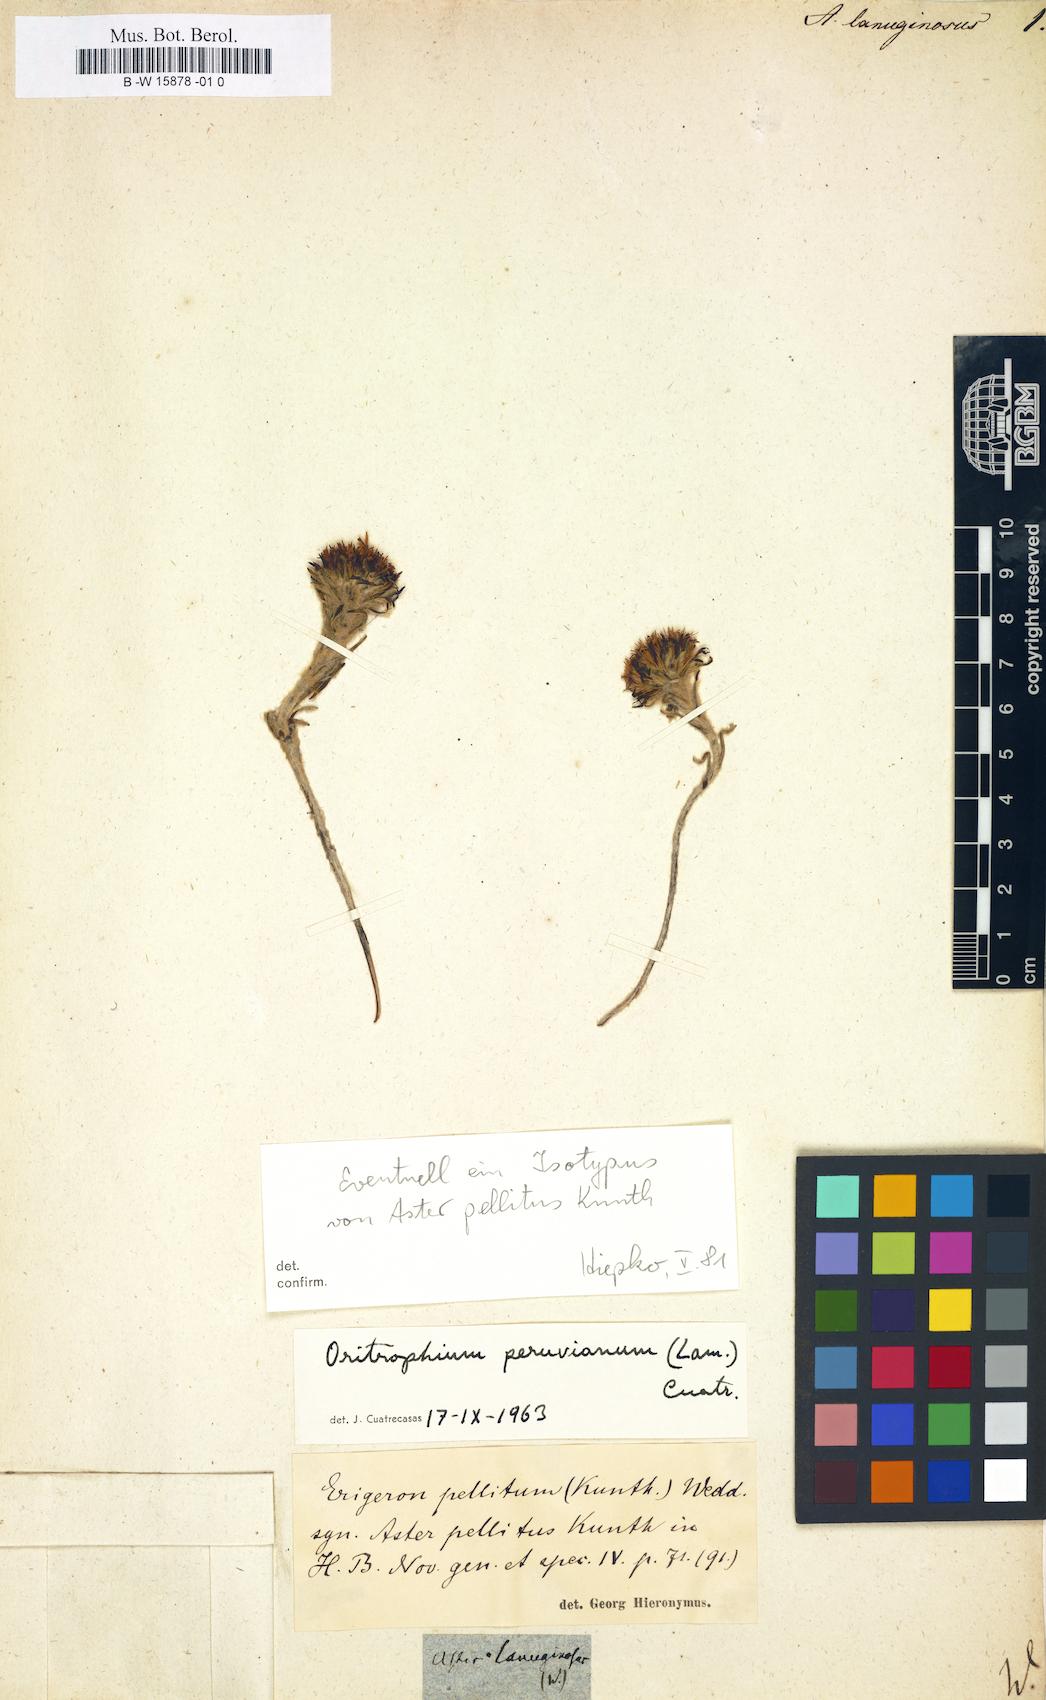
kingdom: Plantae
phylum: Tracheophyta
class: Magnoliopsida
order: Asterales
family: Asteraceae
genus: Chlamydites
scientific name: Chlamydites prainii
